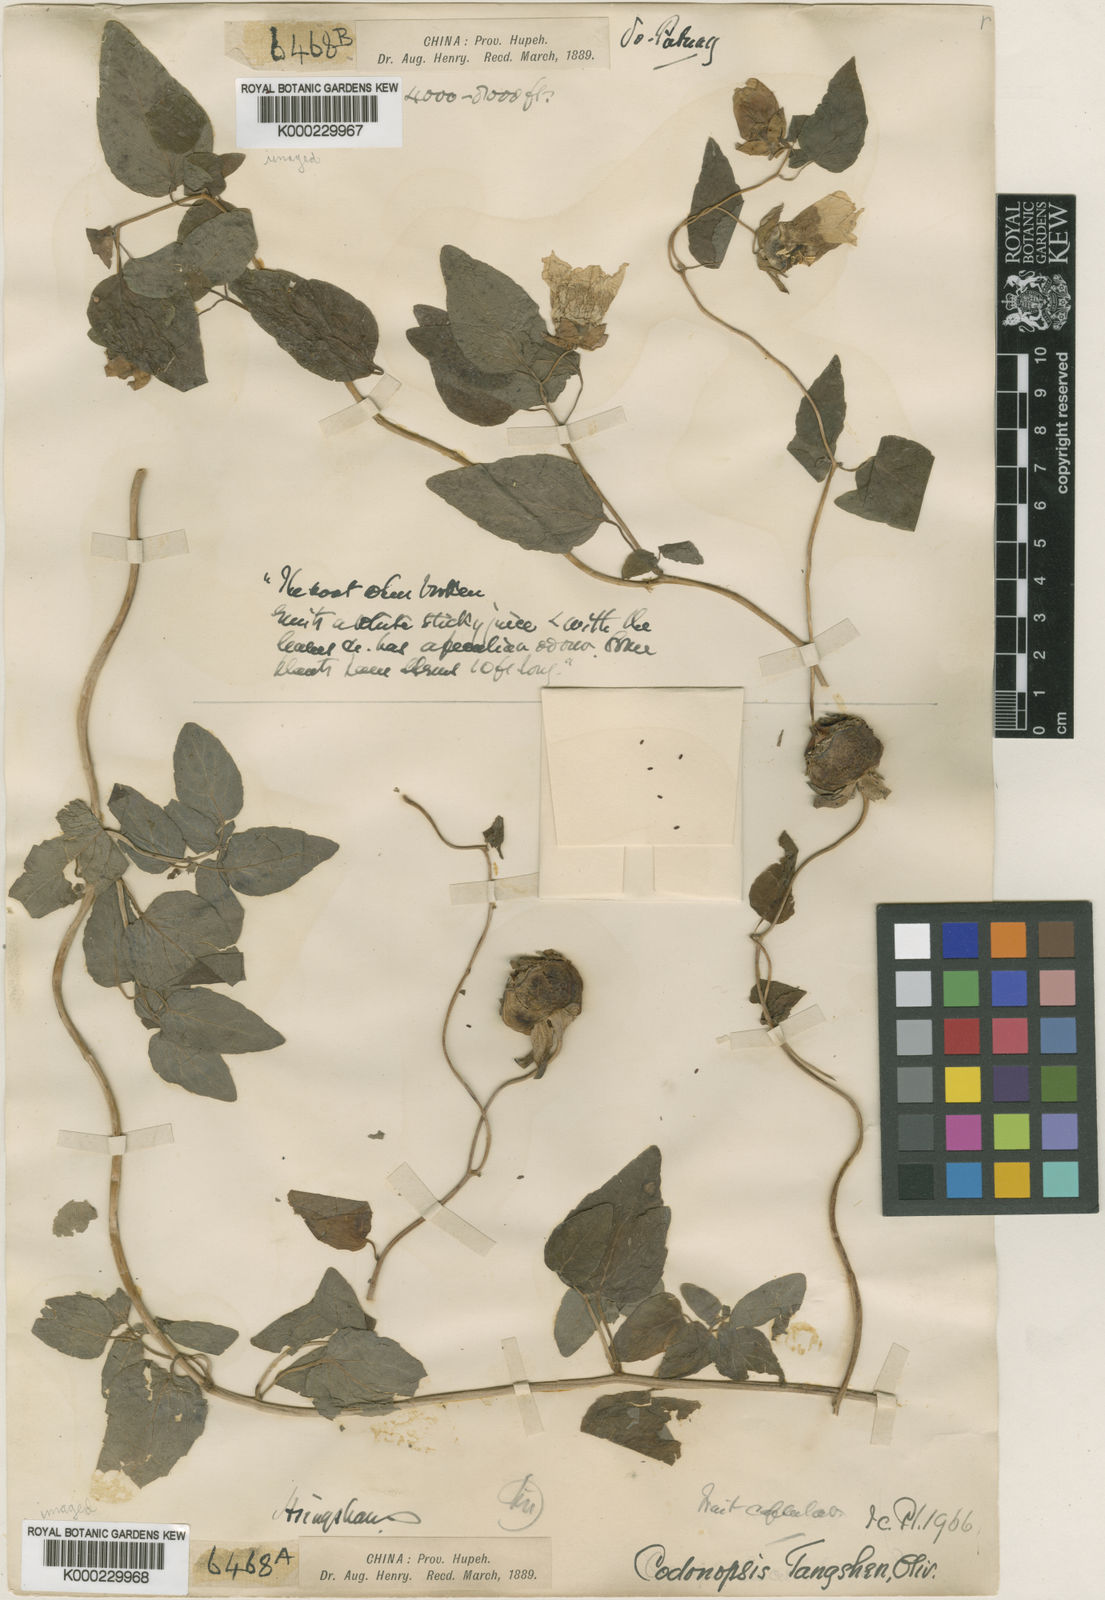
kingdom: Plantae
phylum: Tracheophyta
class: Magnoliopsida
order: Asterales
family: Campanulaceae
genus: Codonopsis
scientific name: Codonopsis pilosula
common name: Bellflower
